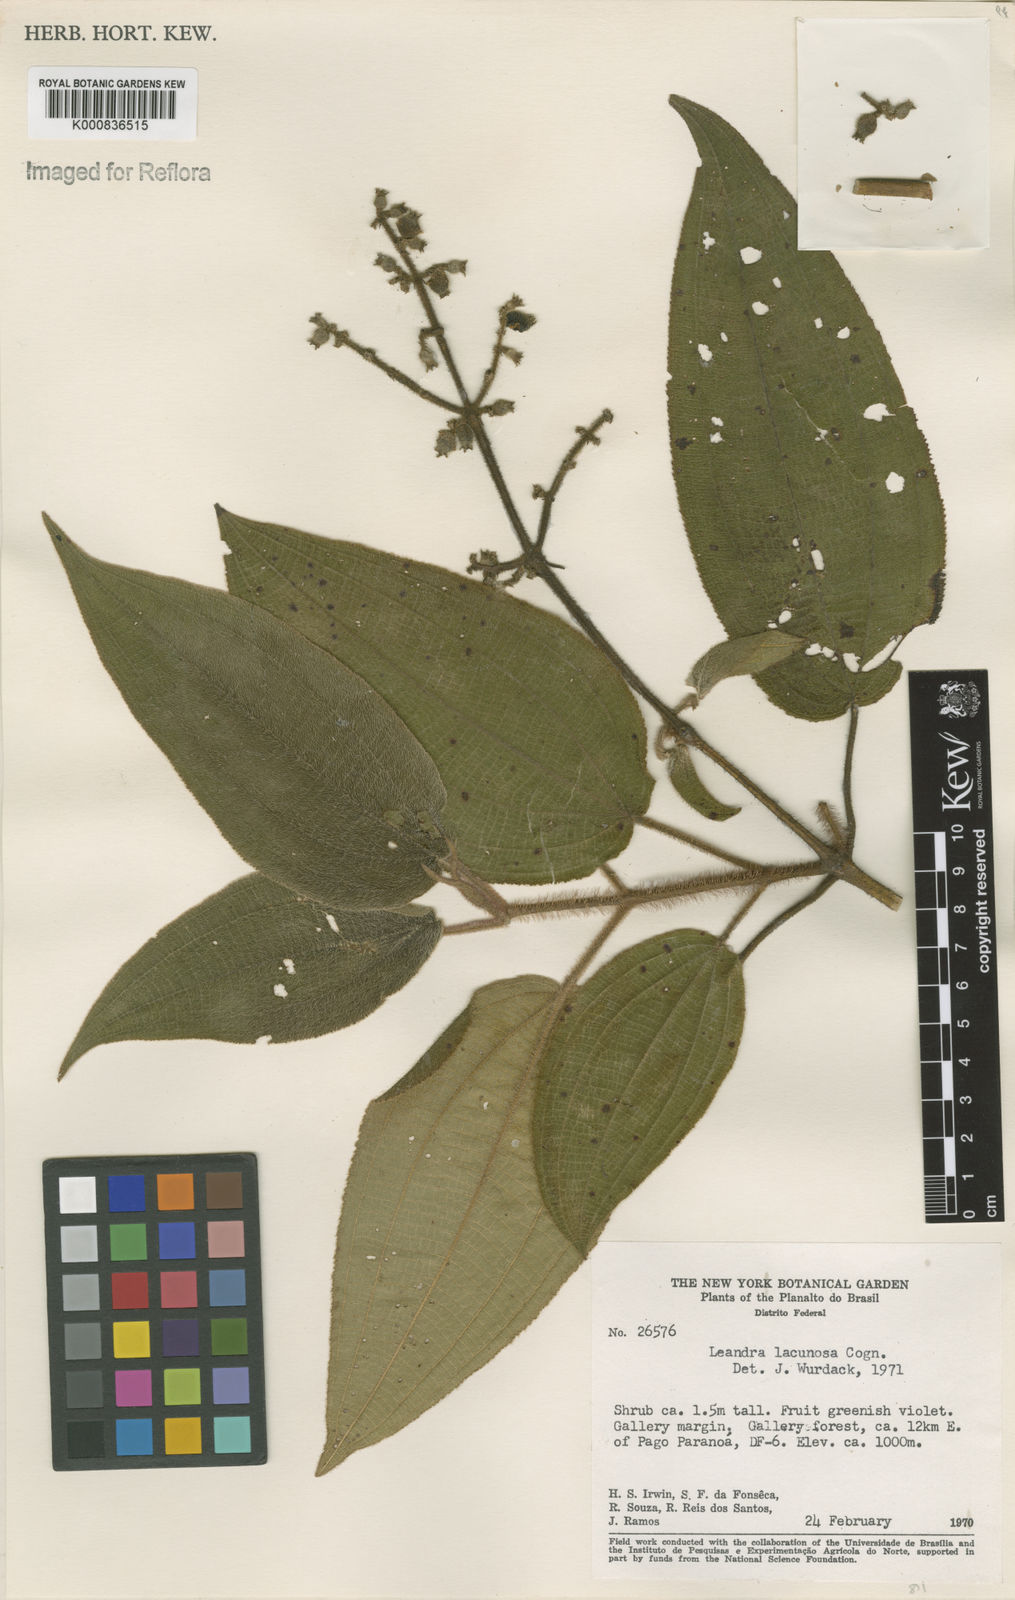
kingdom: Plantae
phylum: Tracheophyta
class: Magnoliopsida
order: Myrtales
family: Melastomataceae
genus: Miconia
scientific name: Miconia lacunosa
